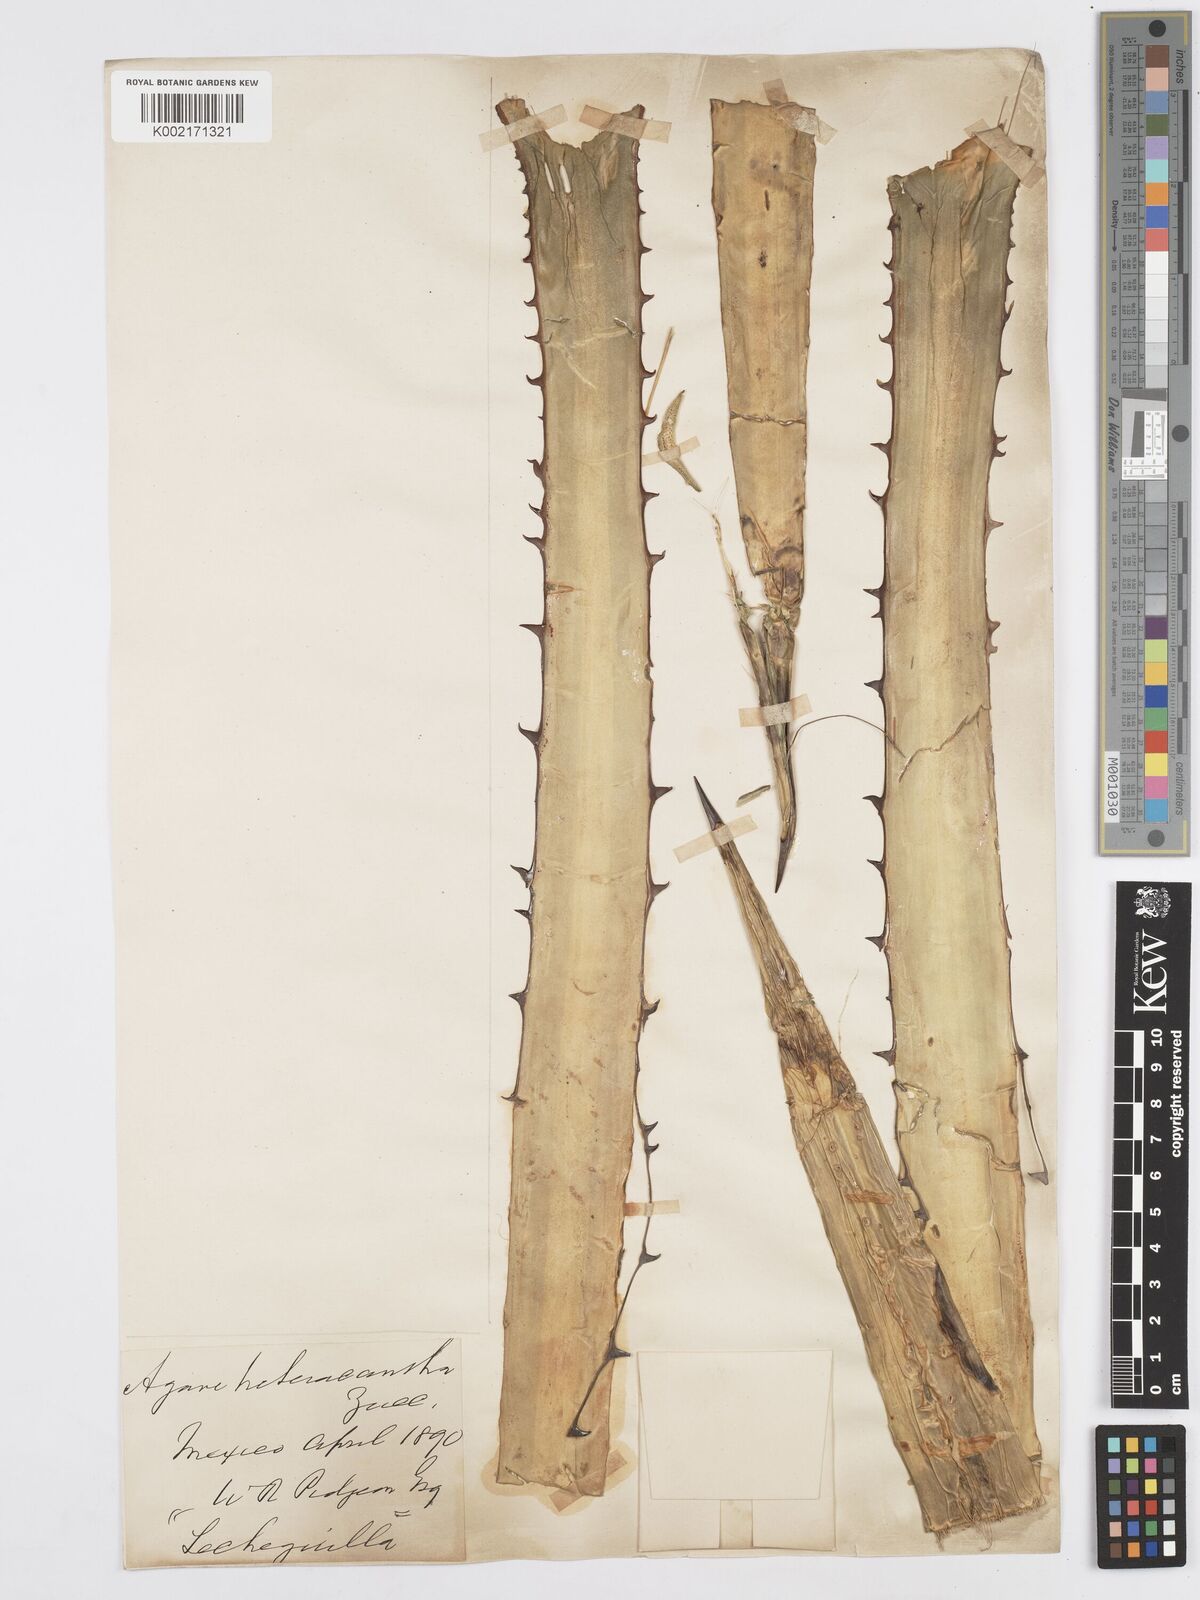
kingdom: Plantae
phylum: Tracheophyta
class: Liliopsida
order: Asparagales
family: Asparagaceae
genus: Agave
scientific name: Agave lechuguilla
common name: Lecheguilla agave
